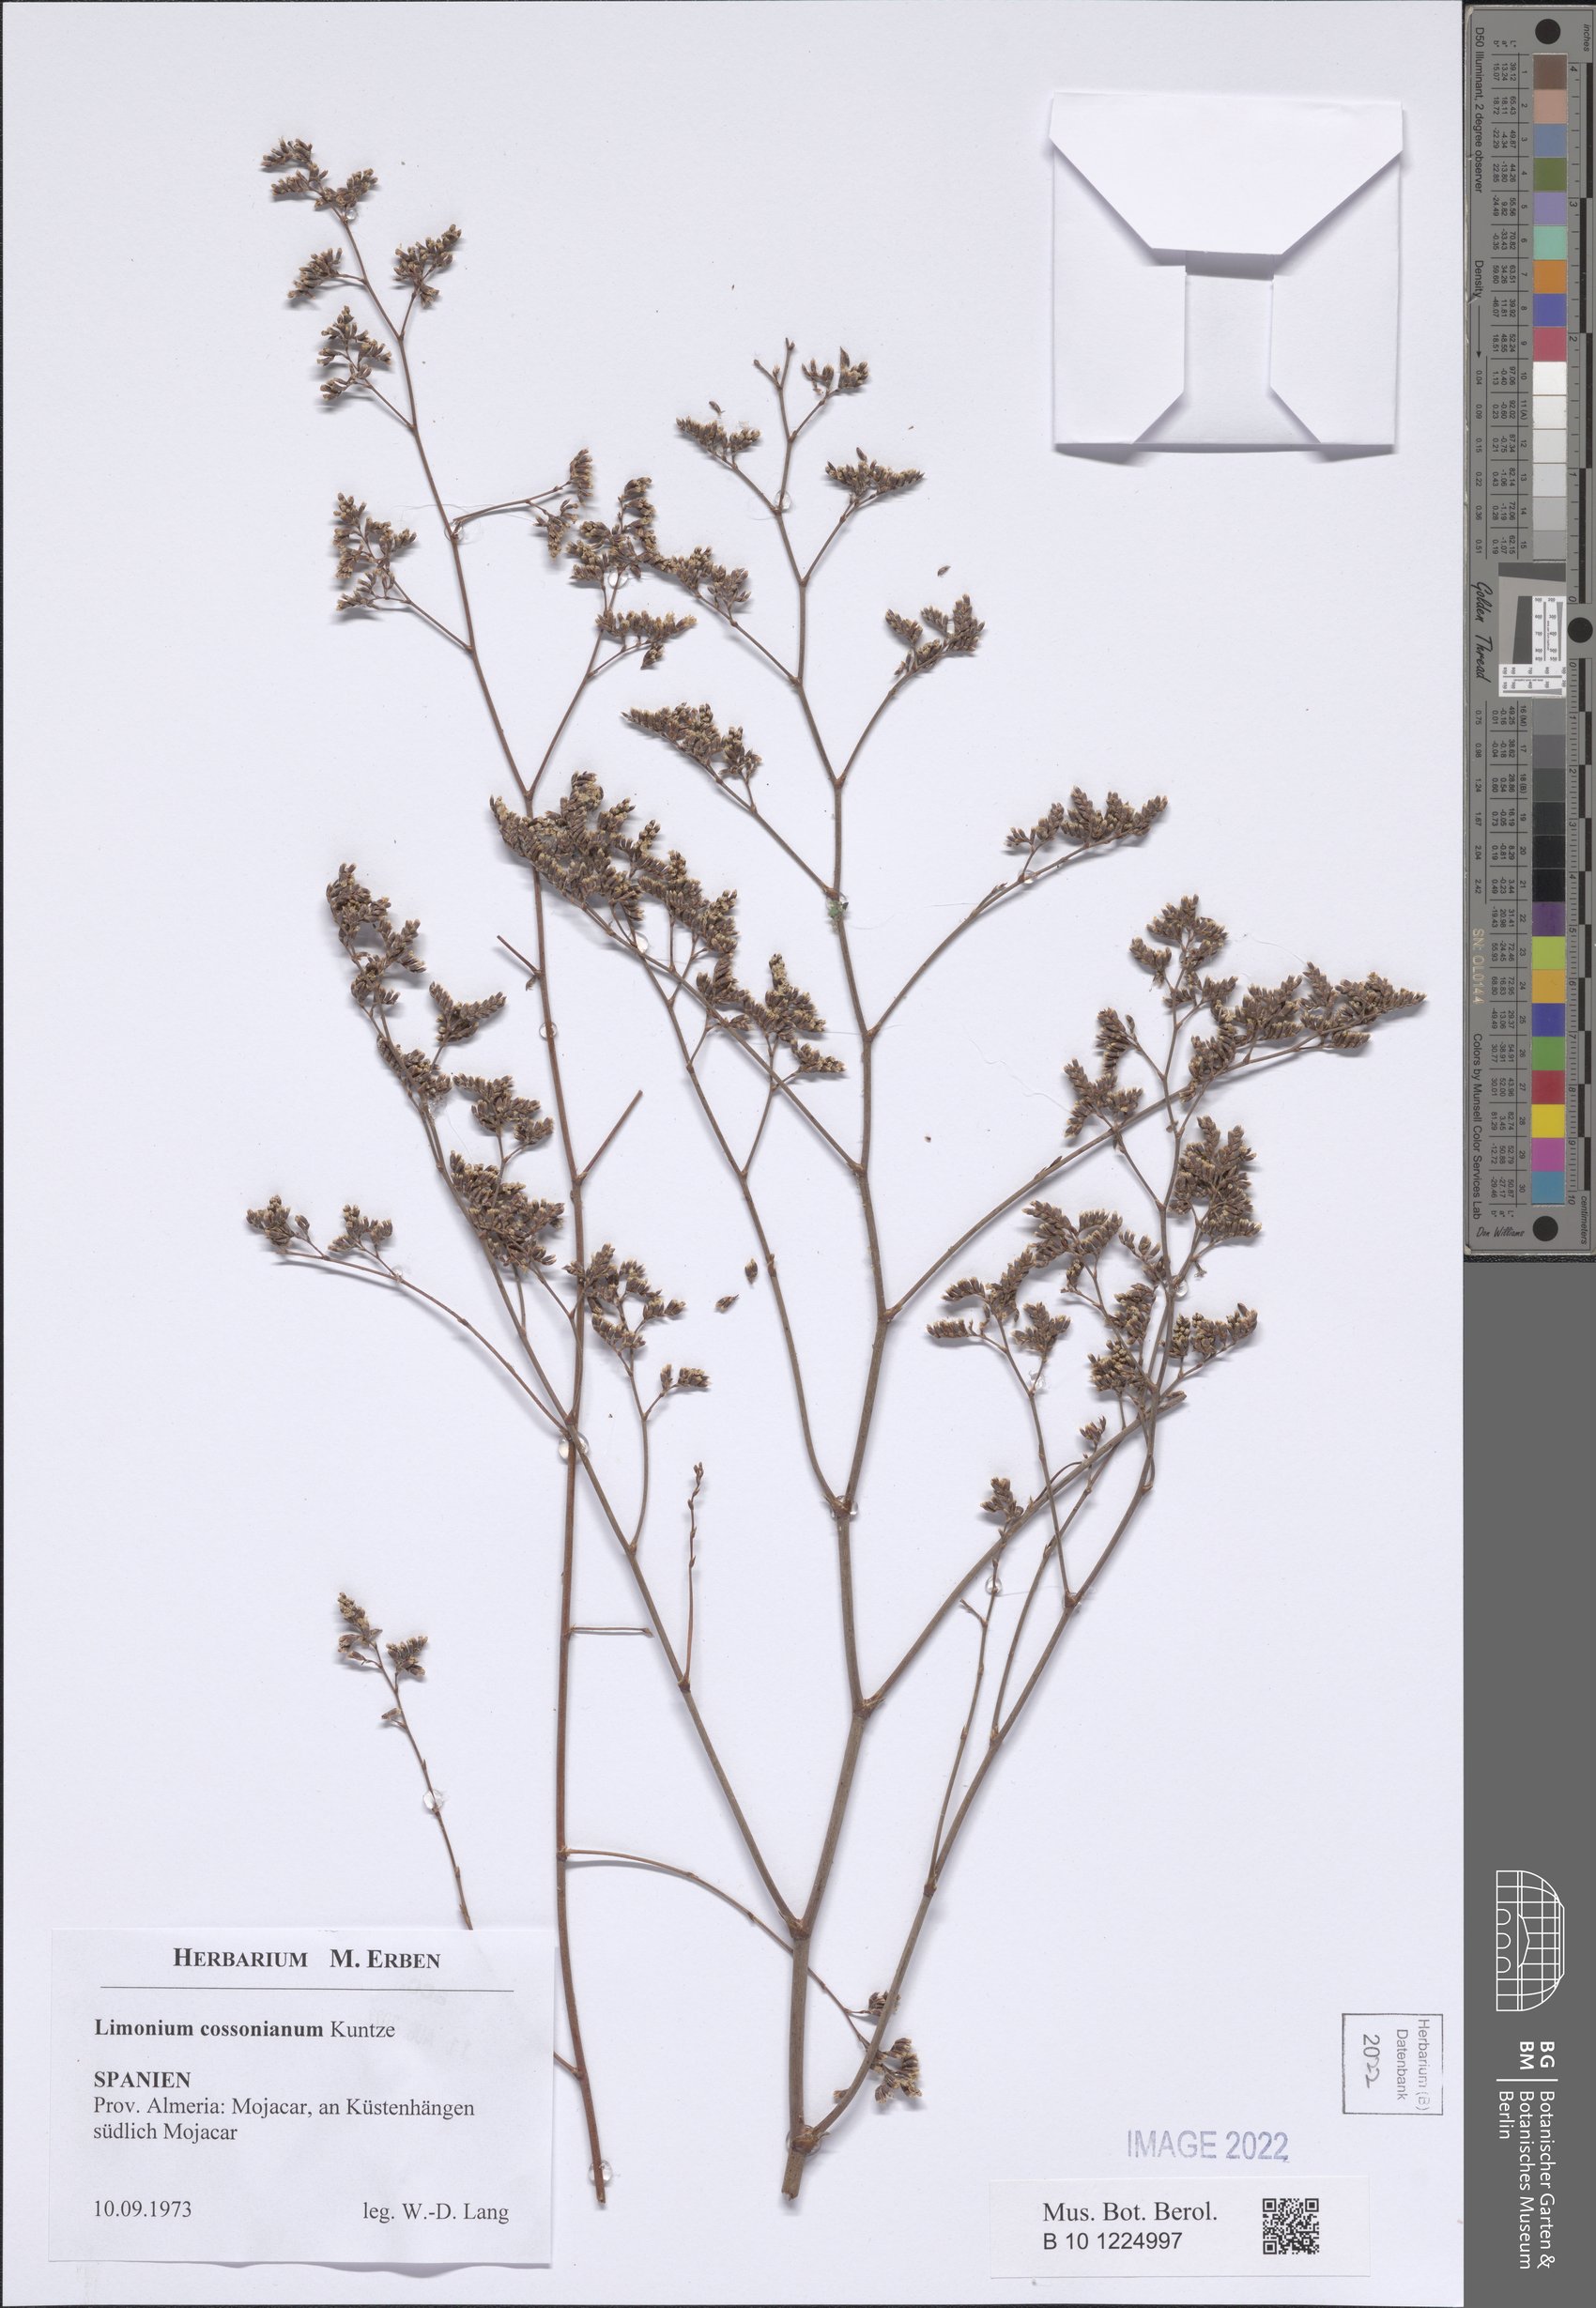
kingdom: Plantae
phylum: Tracheophyta
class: Magnoliopsida
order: Caryophyllales
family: Plumbaginaceae
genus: Limonium
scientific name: Limonium cossonianum
